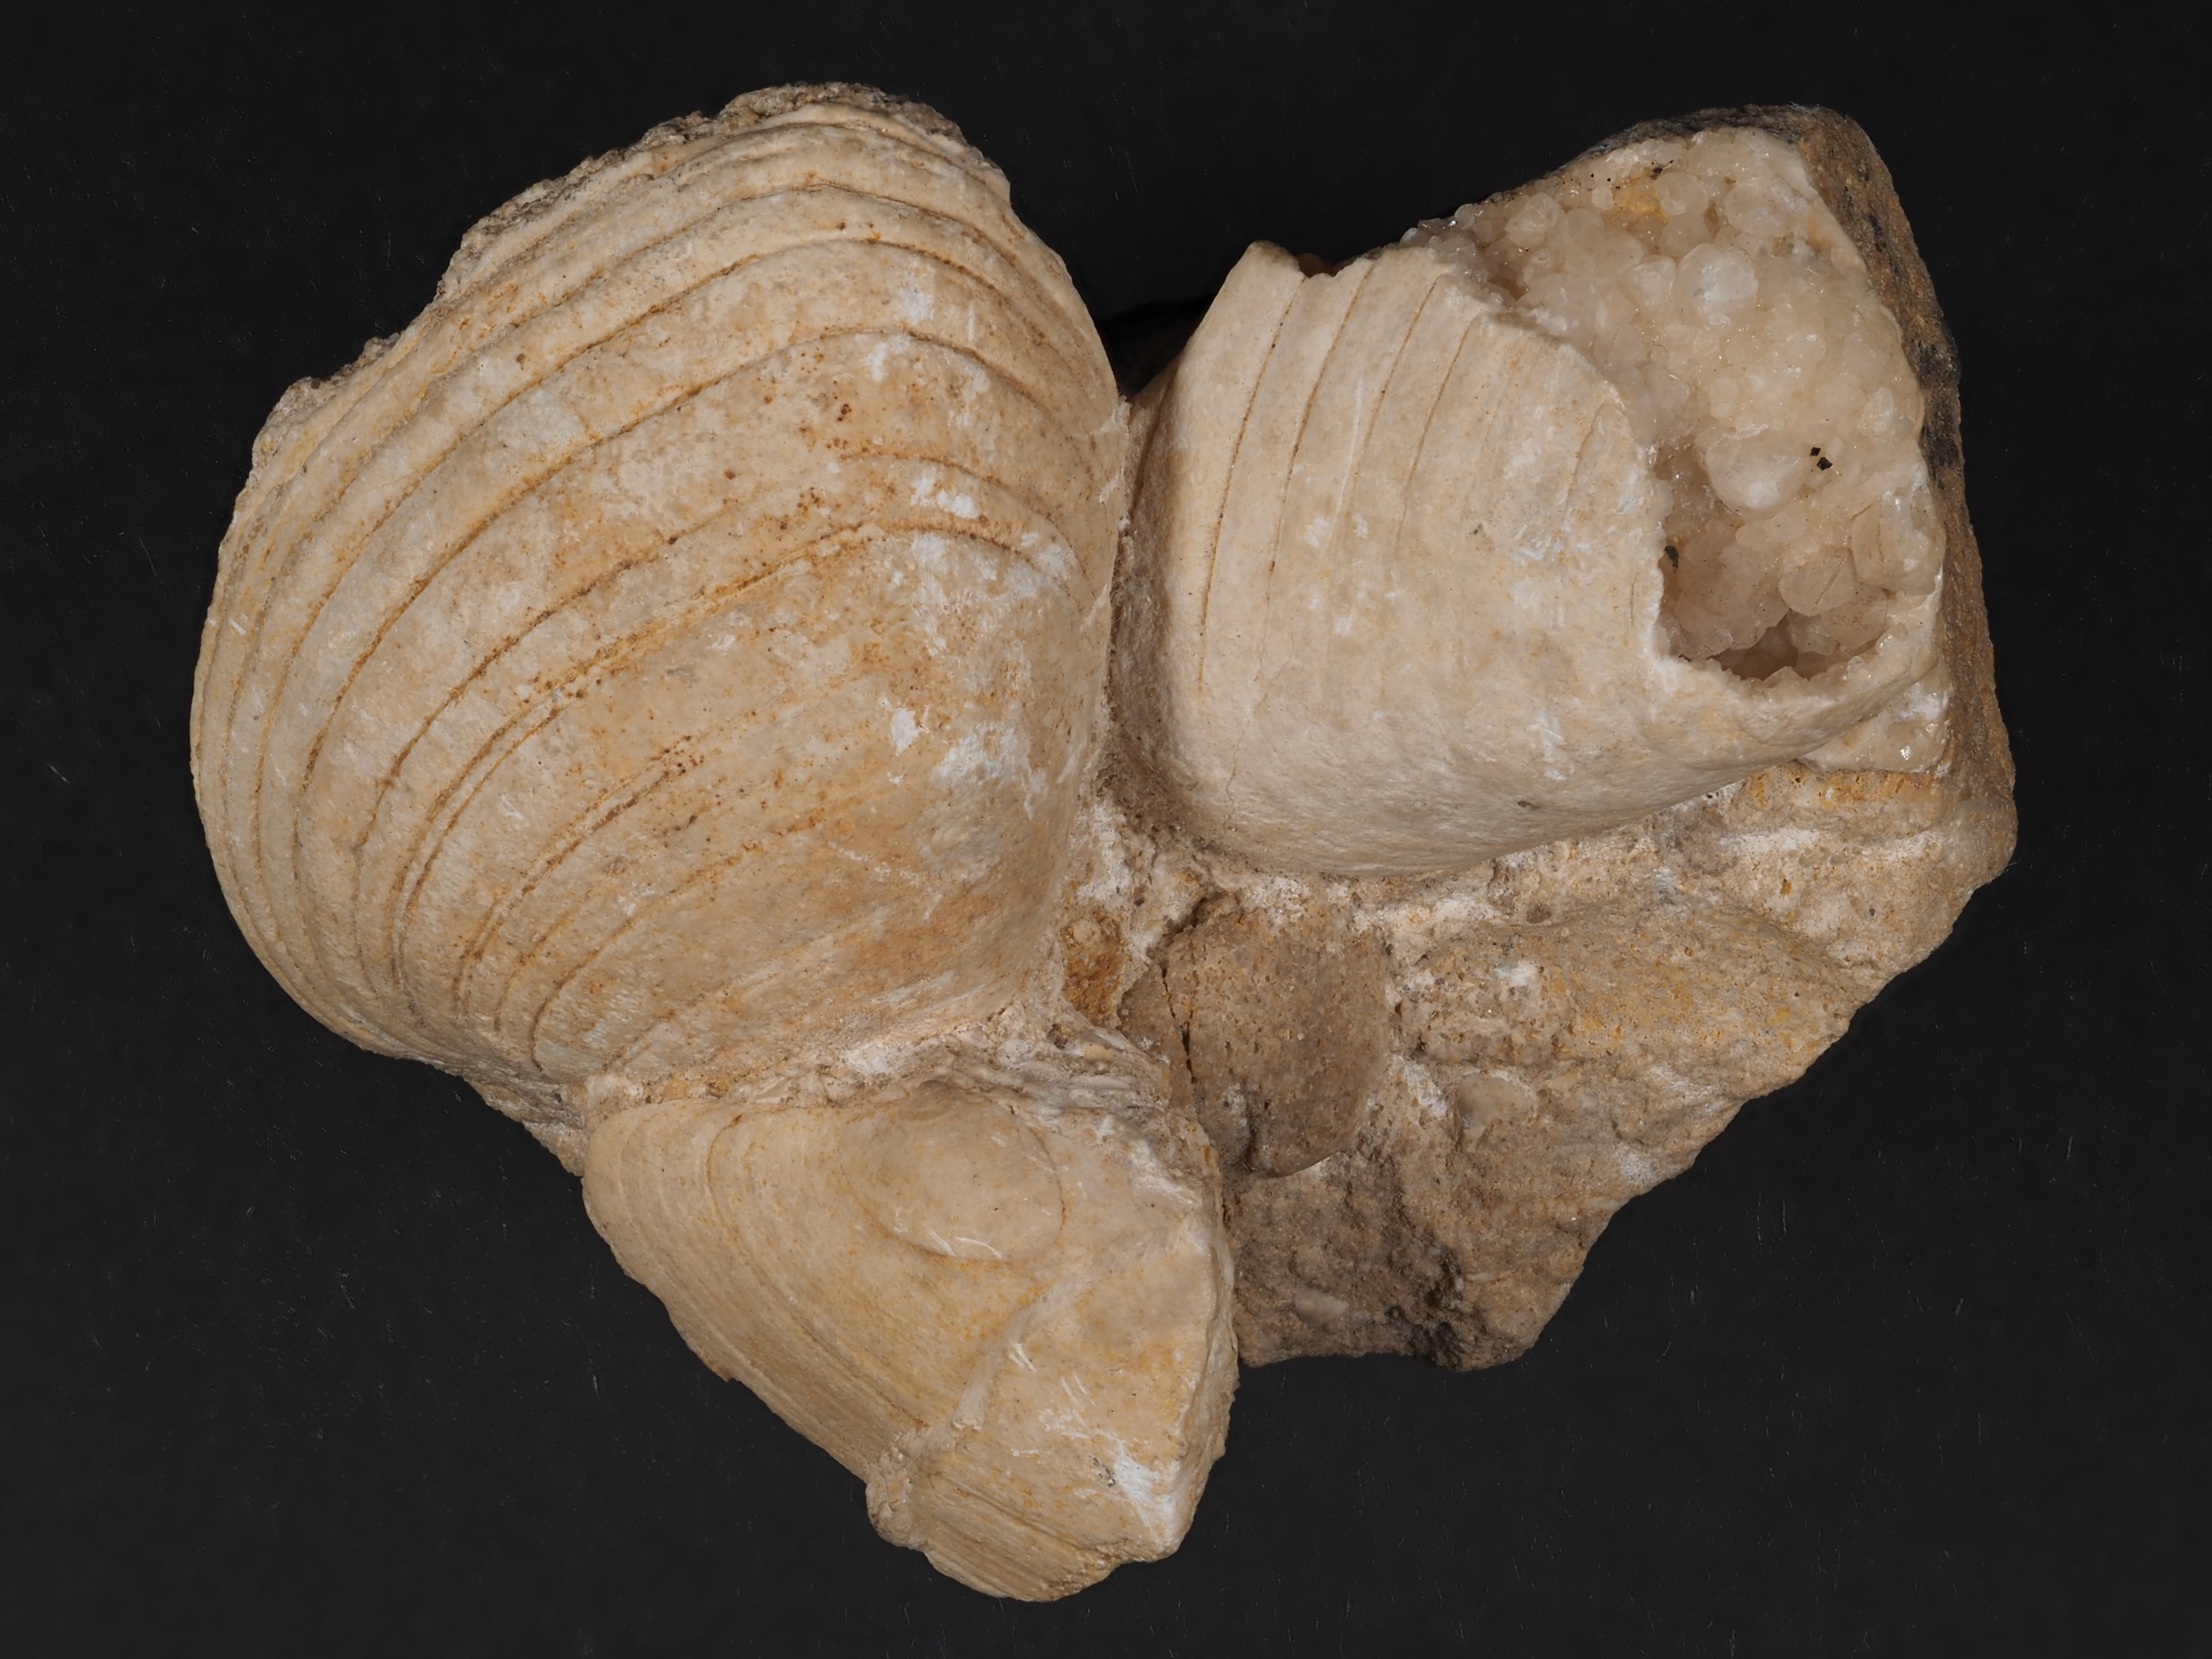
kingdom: Animalia
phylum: Mollusca
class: Bivalvia
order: Carditida
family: Cardiniidae
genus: Cardinia
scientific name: Cardinia
